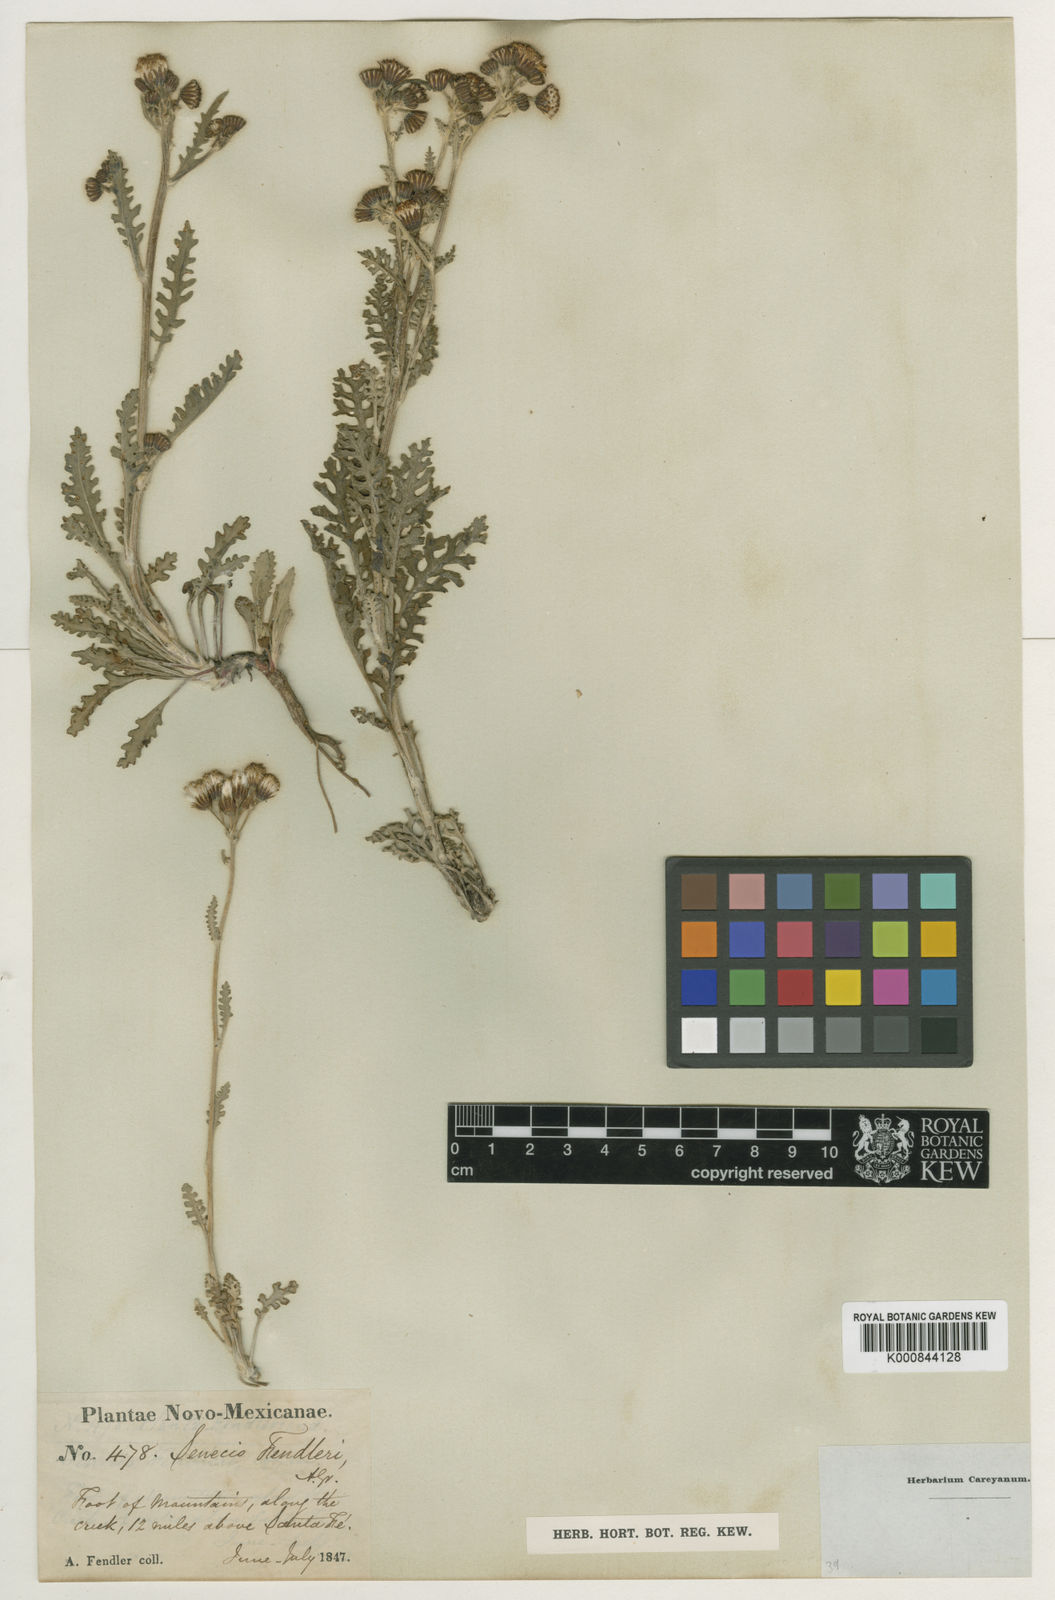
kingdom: Plantae
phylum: Tracheophyta
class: Magnoliopsida
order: Asterales
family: Asteraceae
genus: Packera
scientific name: Packera
